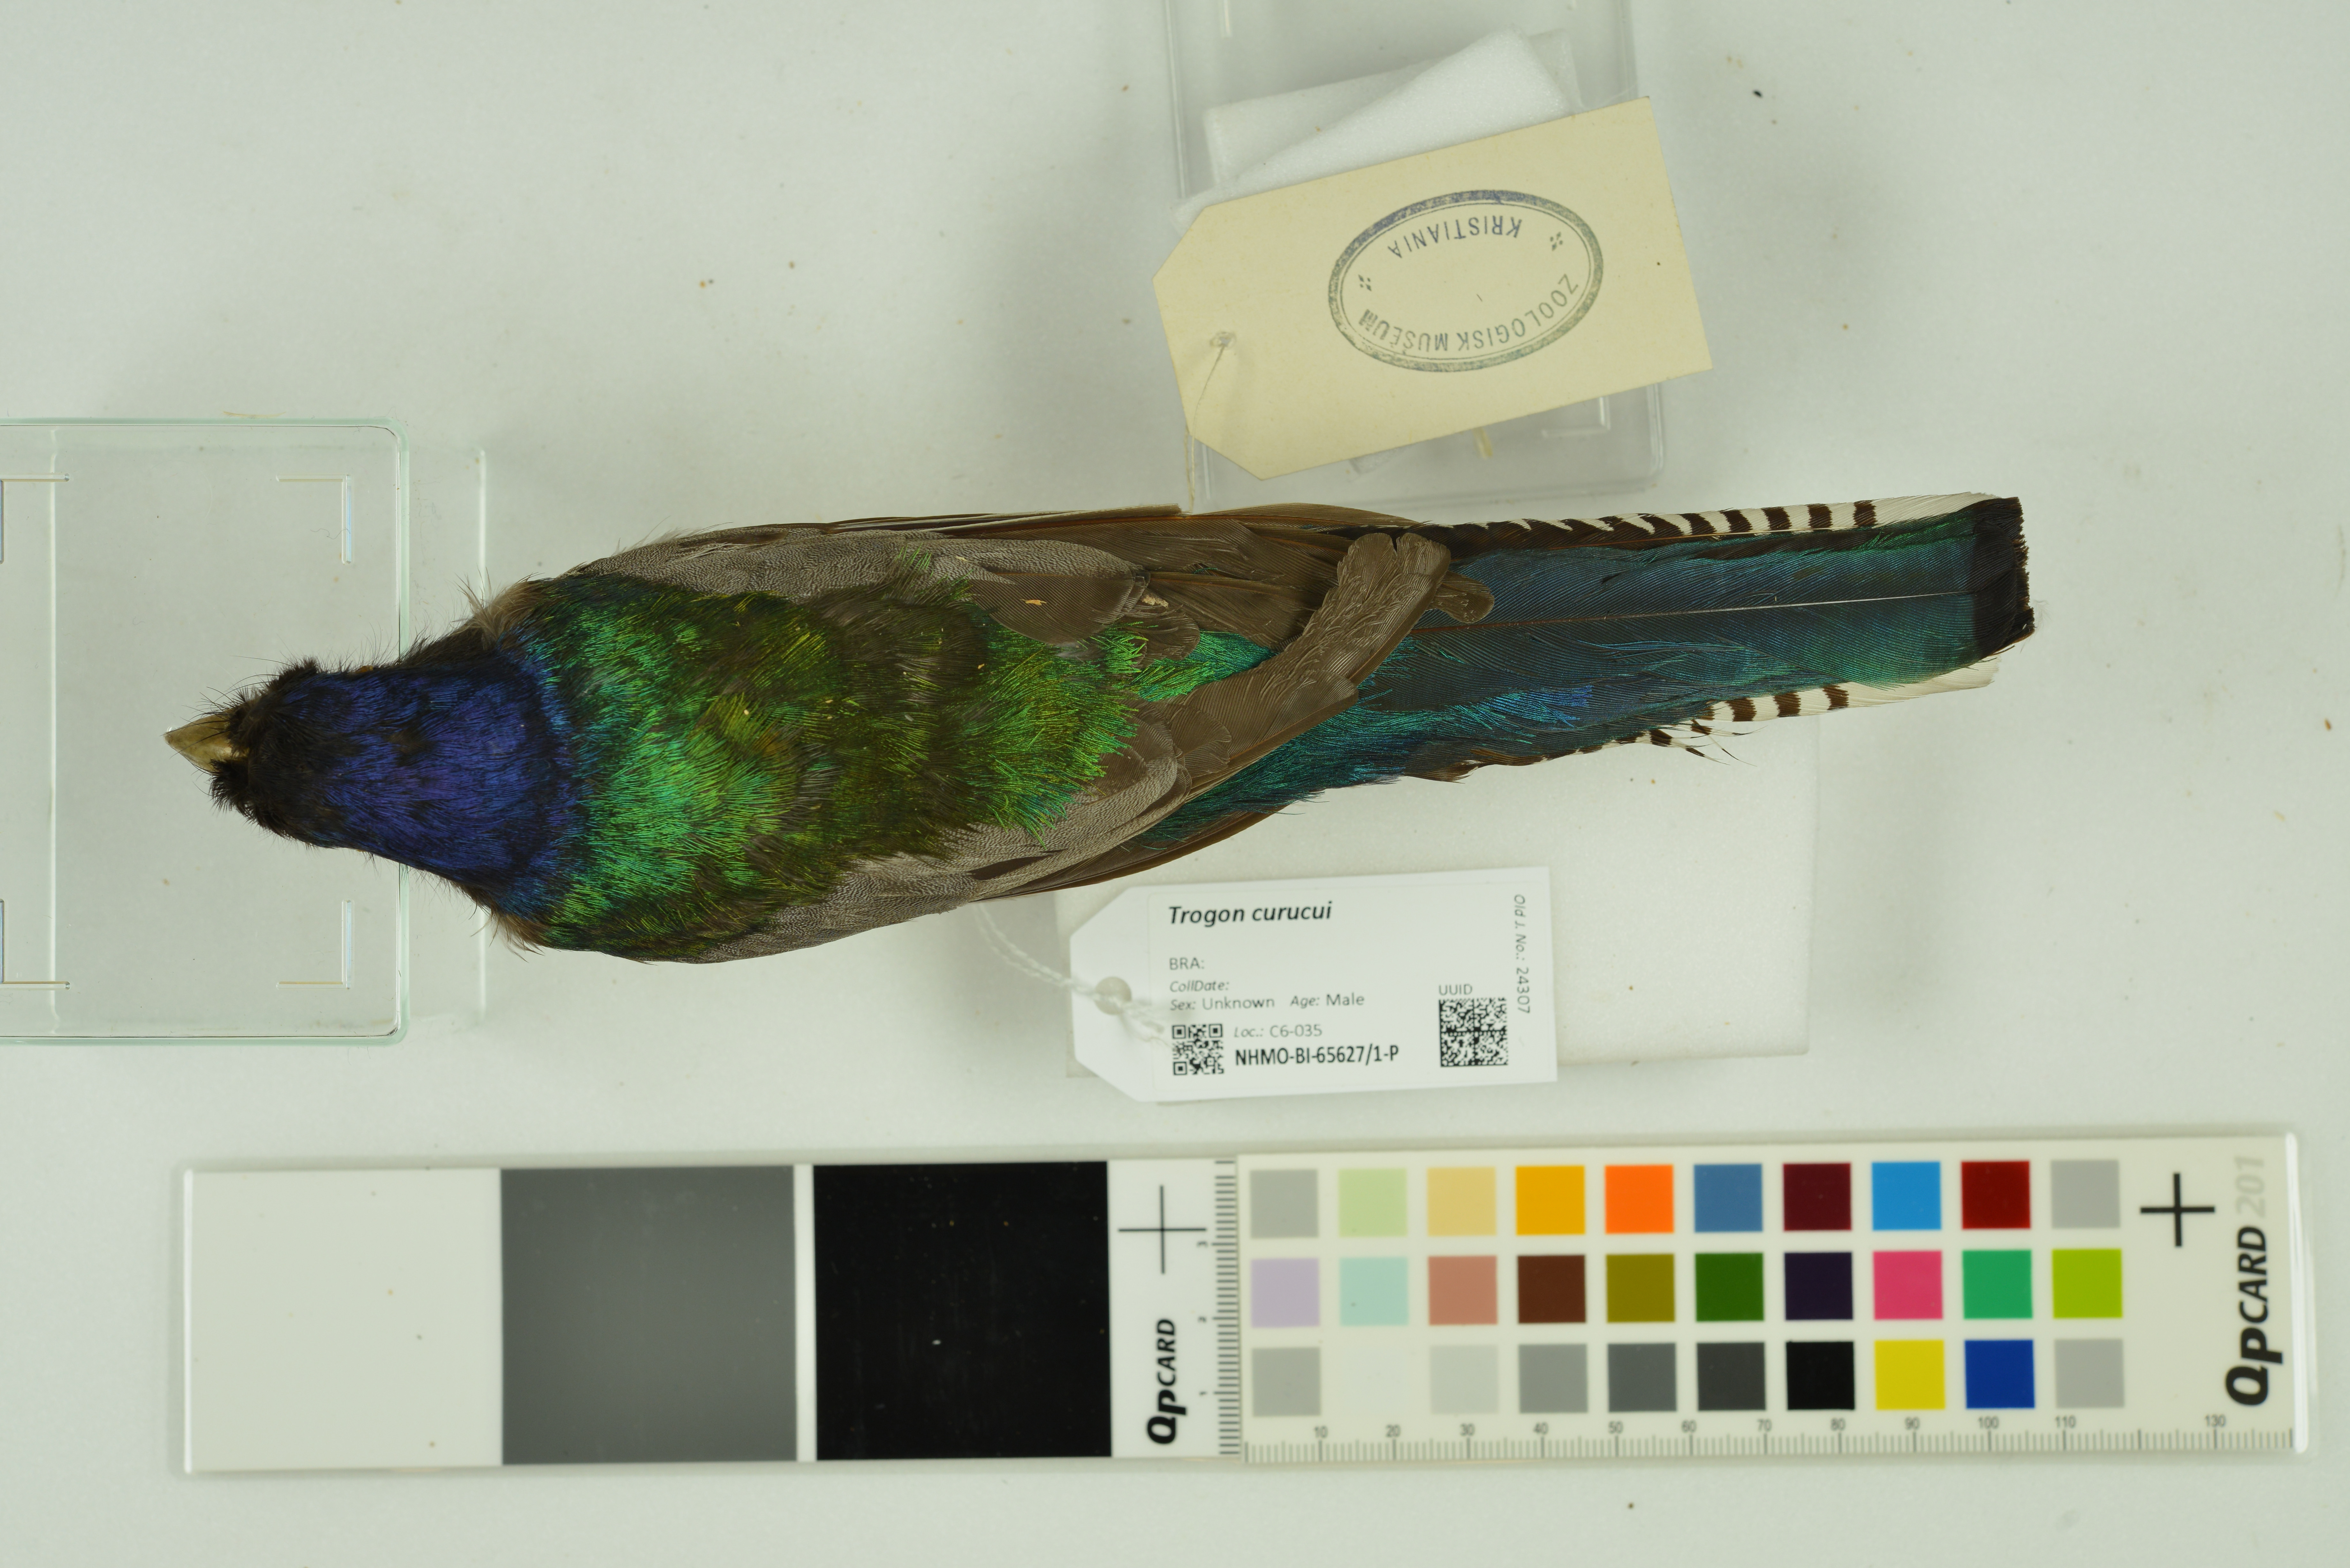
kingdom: Animalia
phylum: Chordata
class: Aves
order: Trogoniformes
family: Trogonidae
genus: Trogon
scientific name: Trogon curucui
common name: Blue-crowned trogon
